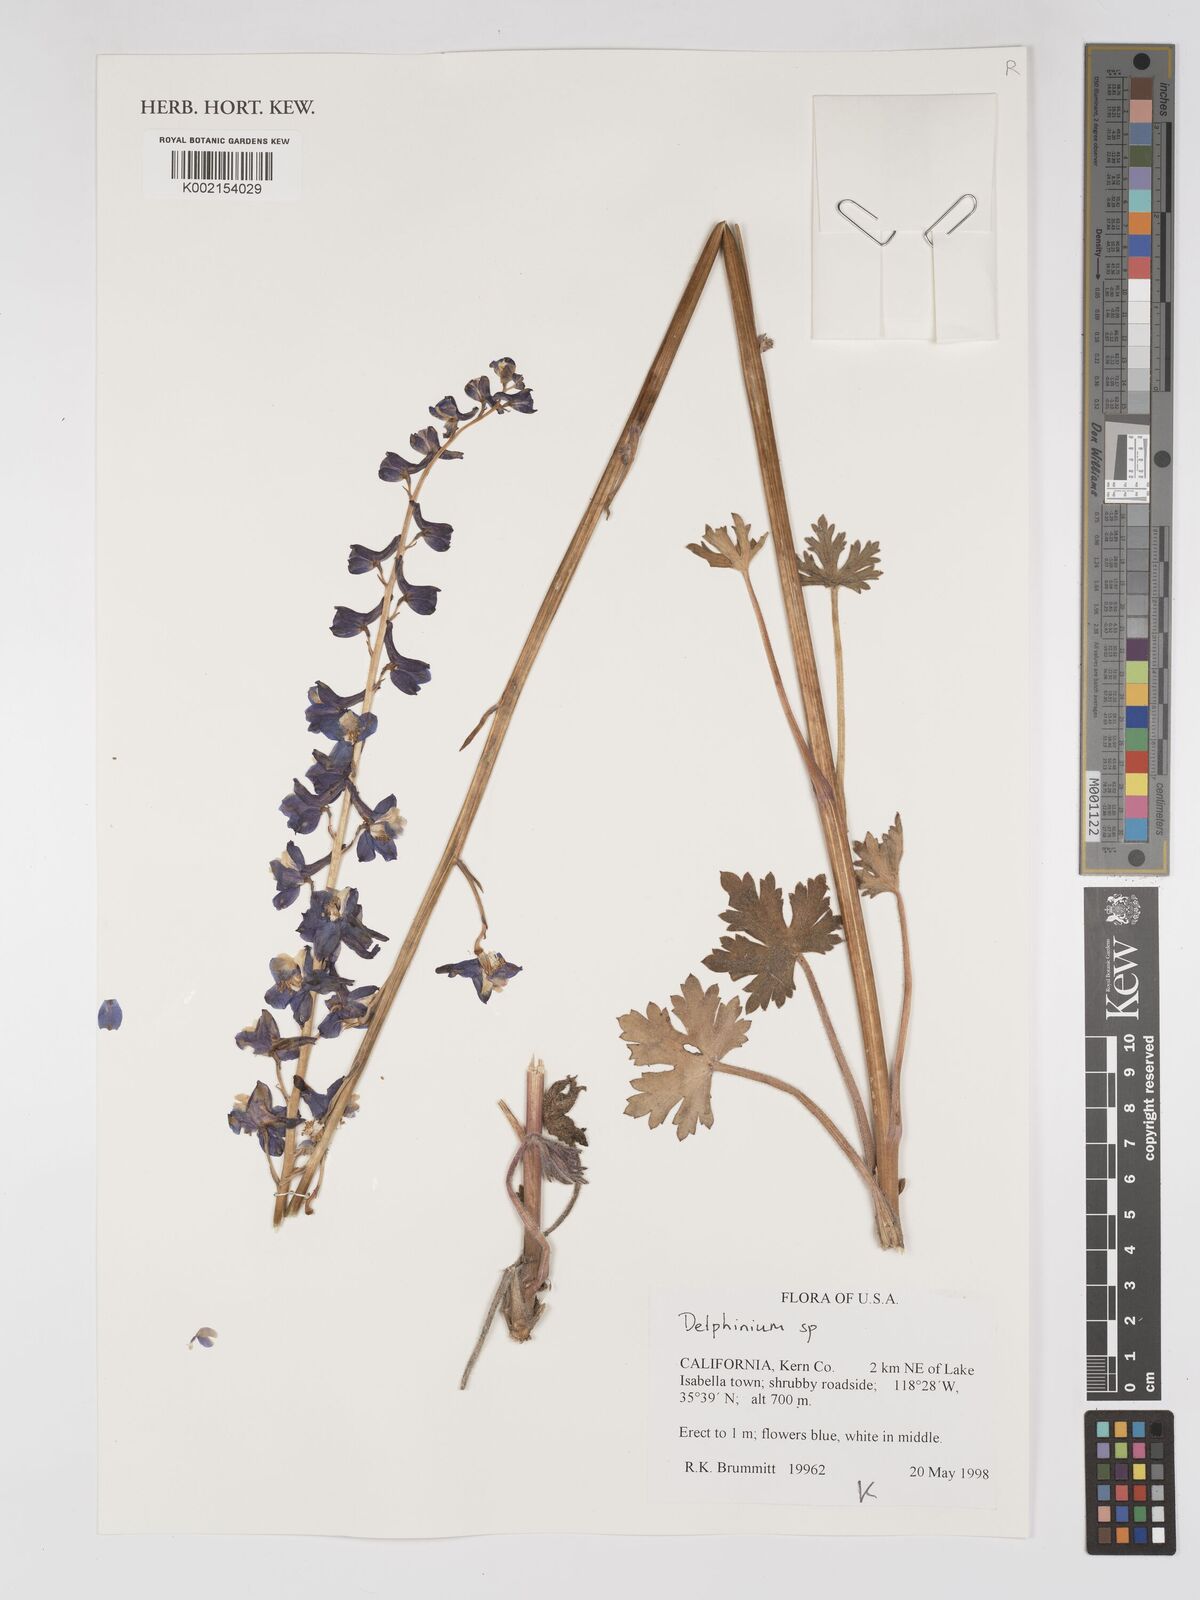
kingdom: Plantae
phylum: Tracheophyta
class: Magnoliopsida
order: Ranunculales
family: Ranunculaceae
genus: Delphinium
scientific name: Delphinium
